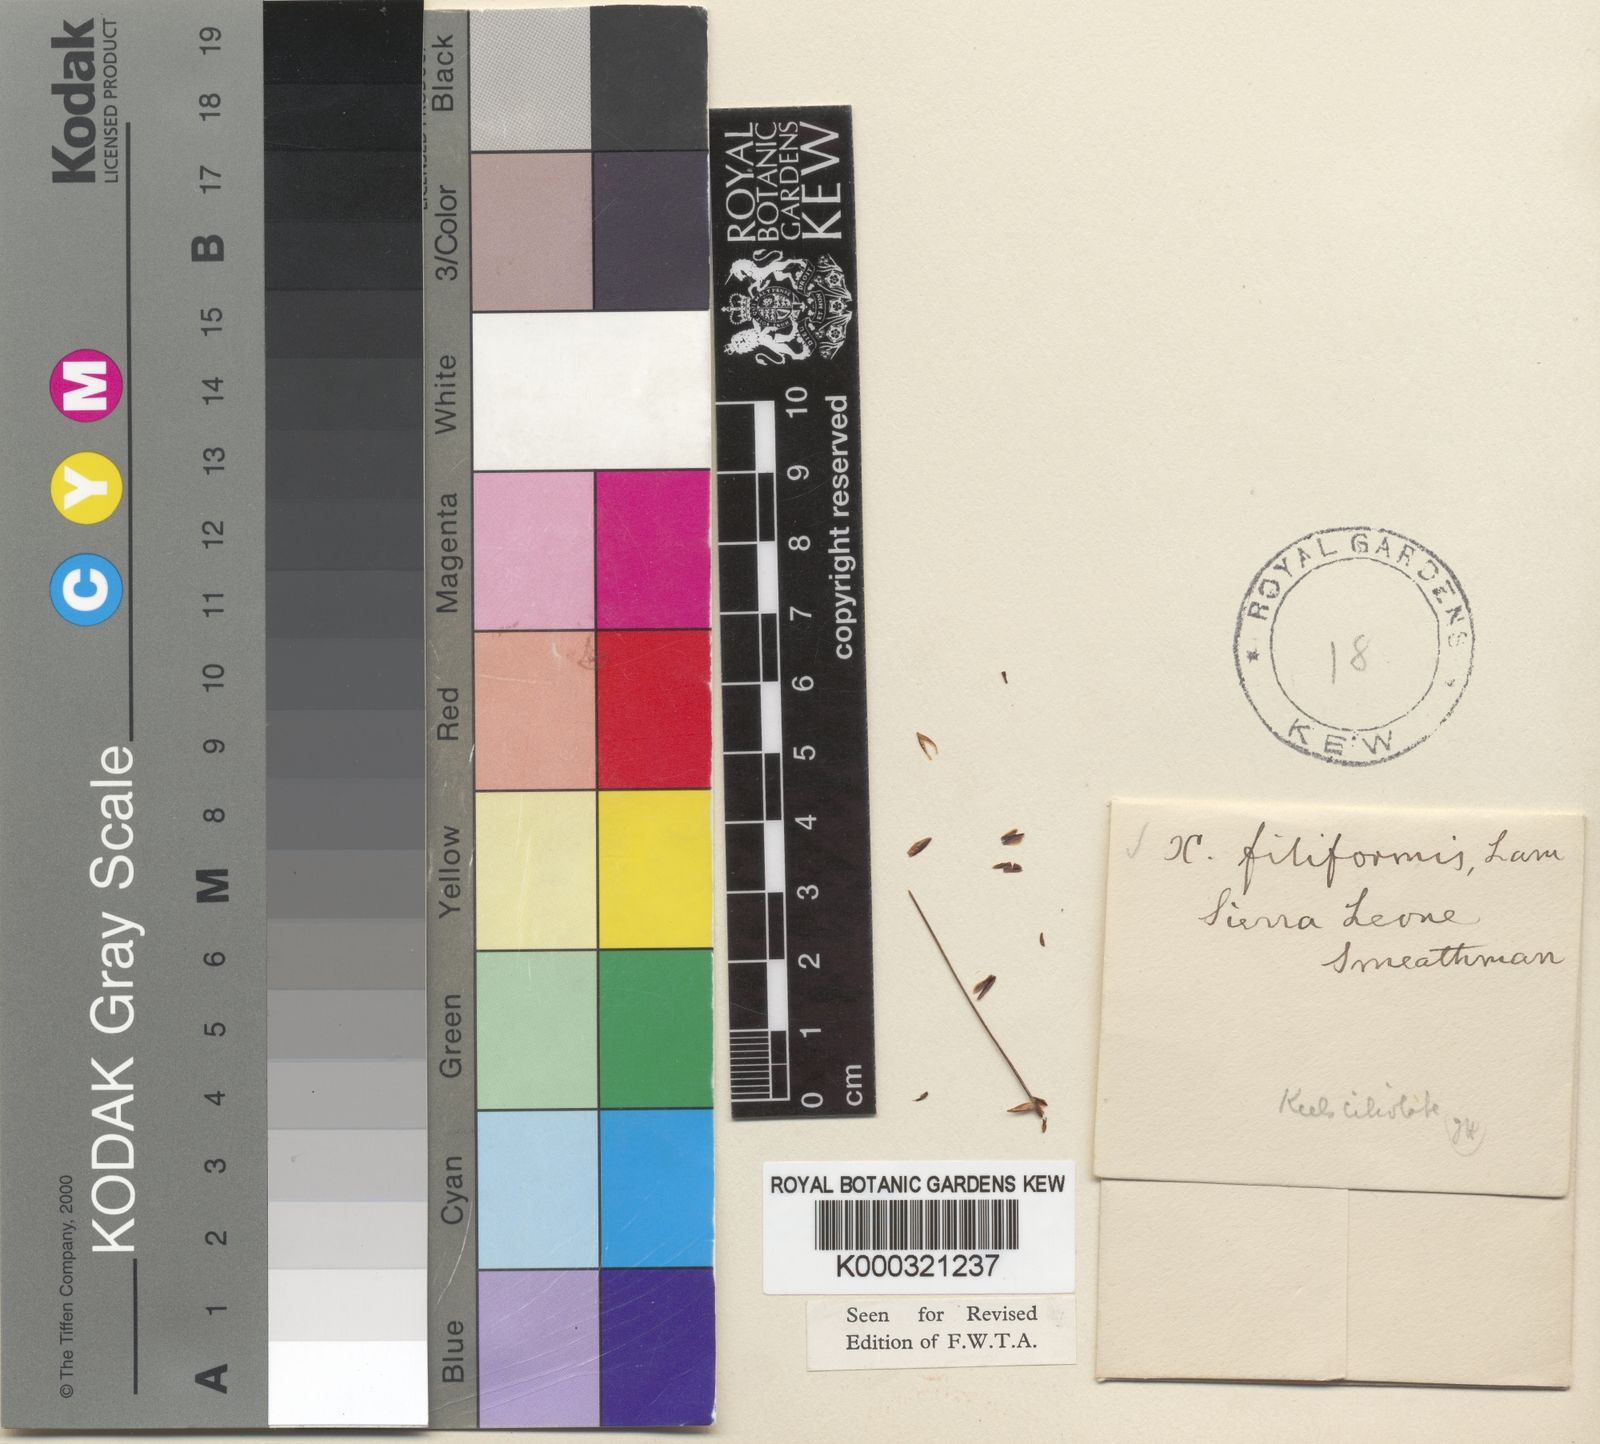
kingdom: Plantae
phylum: Tracheophyta
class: Liliopsida
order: Poales
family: Xyridaceae
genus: Xyris
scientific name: Xyris filiformis
